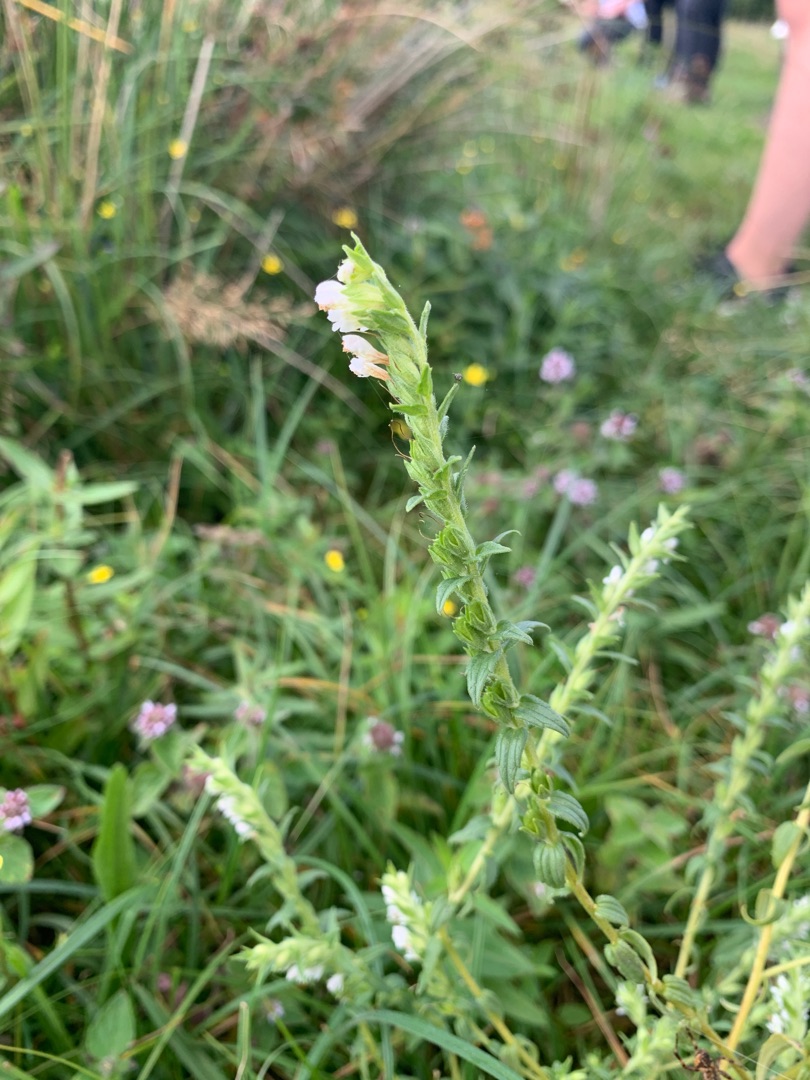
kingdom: Plantae
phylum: Tracheophyta
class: Magnoliopsida
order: Lamiales
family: Orobanchaceae
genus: Odontites
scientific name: Odontites vulgaris
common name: Høst-rødtop
